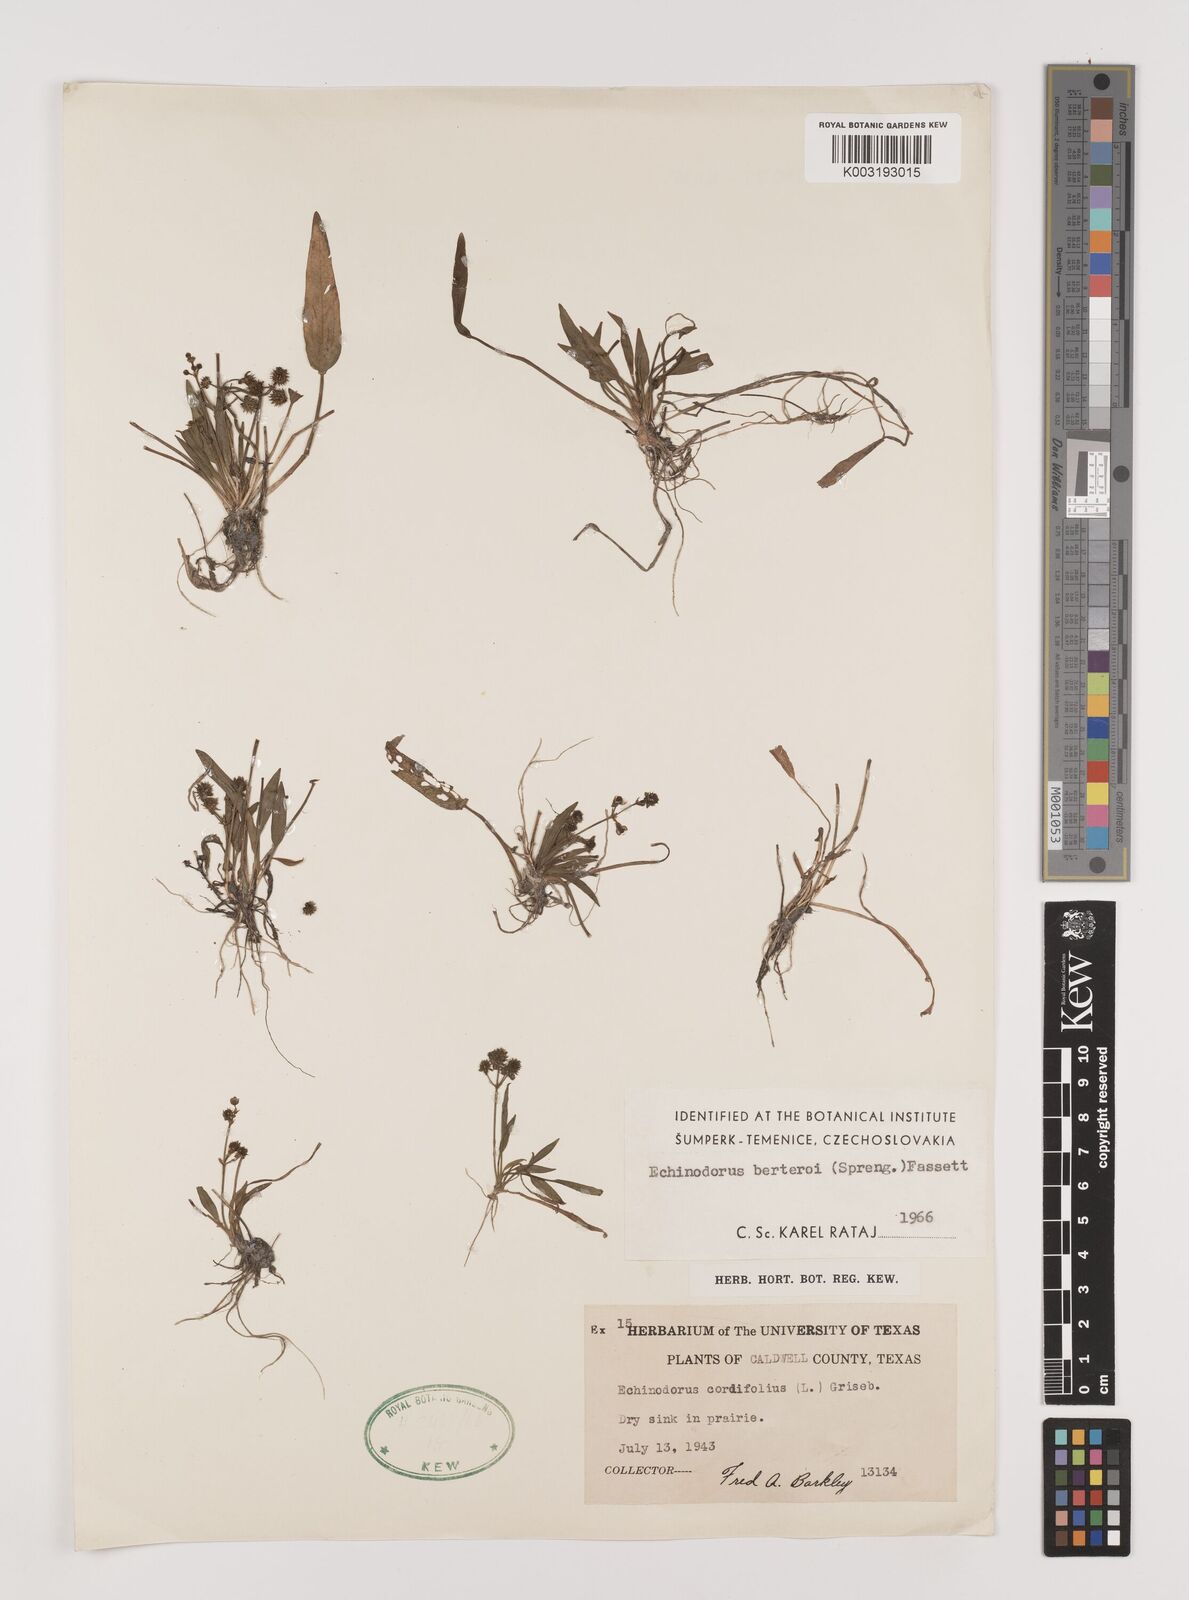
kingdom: Plantae
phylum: Tracheophyta
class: Liliopsida
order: Alismatales
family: Alismataceae
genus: Echinodorus
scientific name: Echinodorus berteroi
